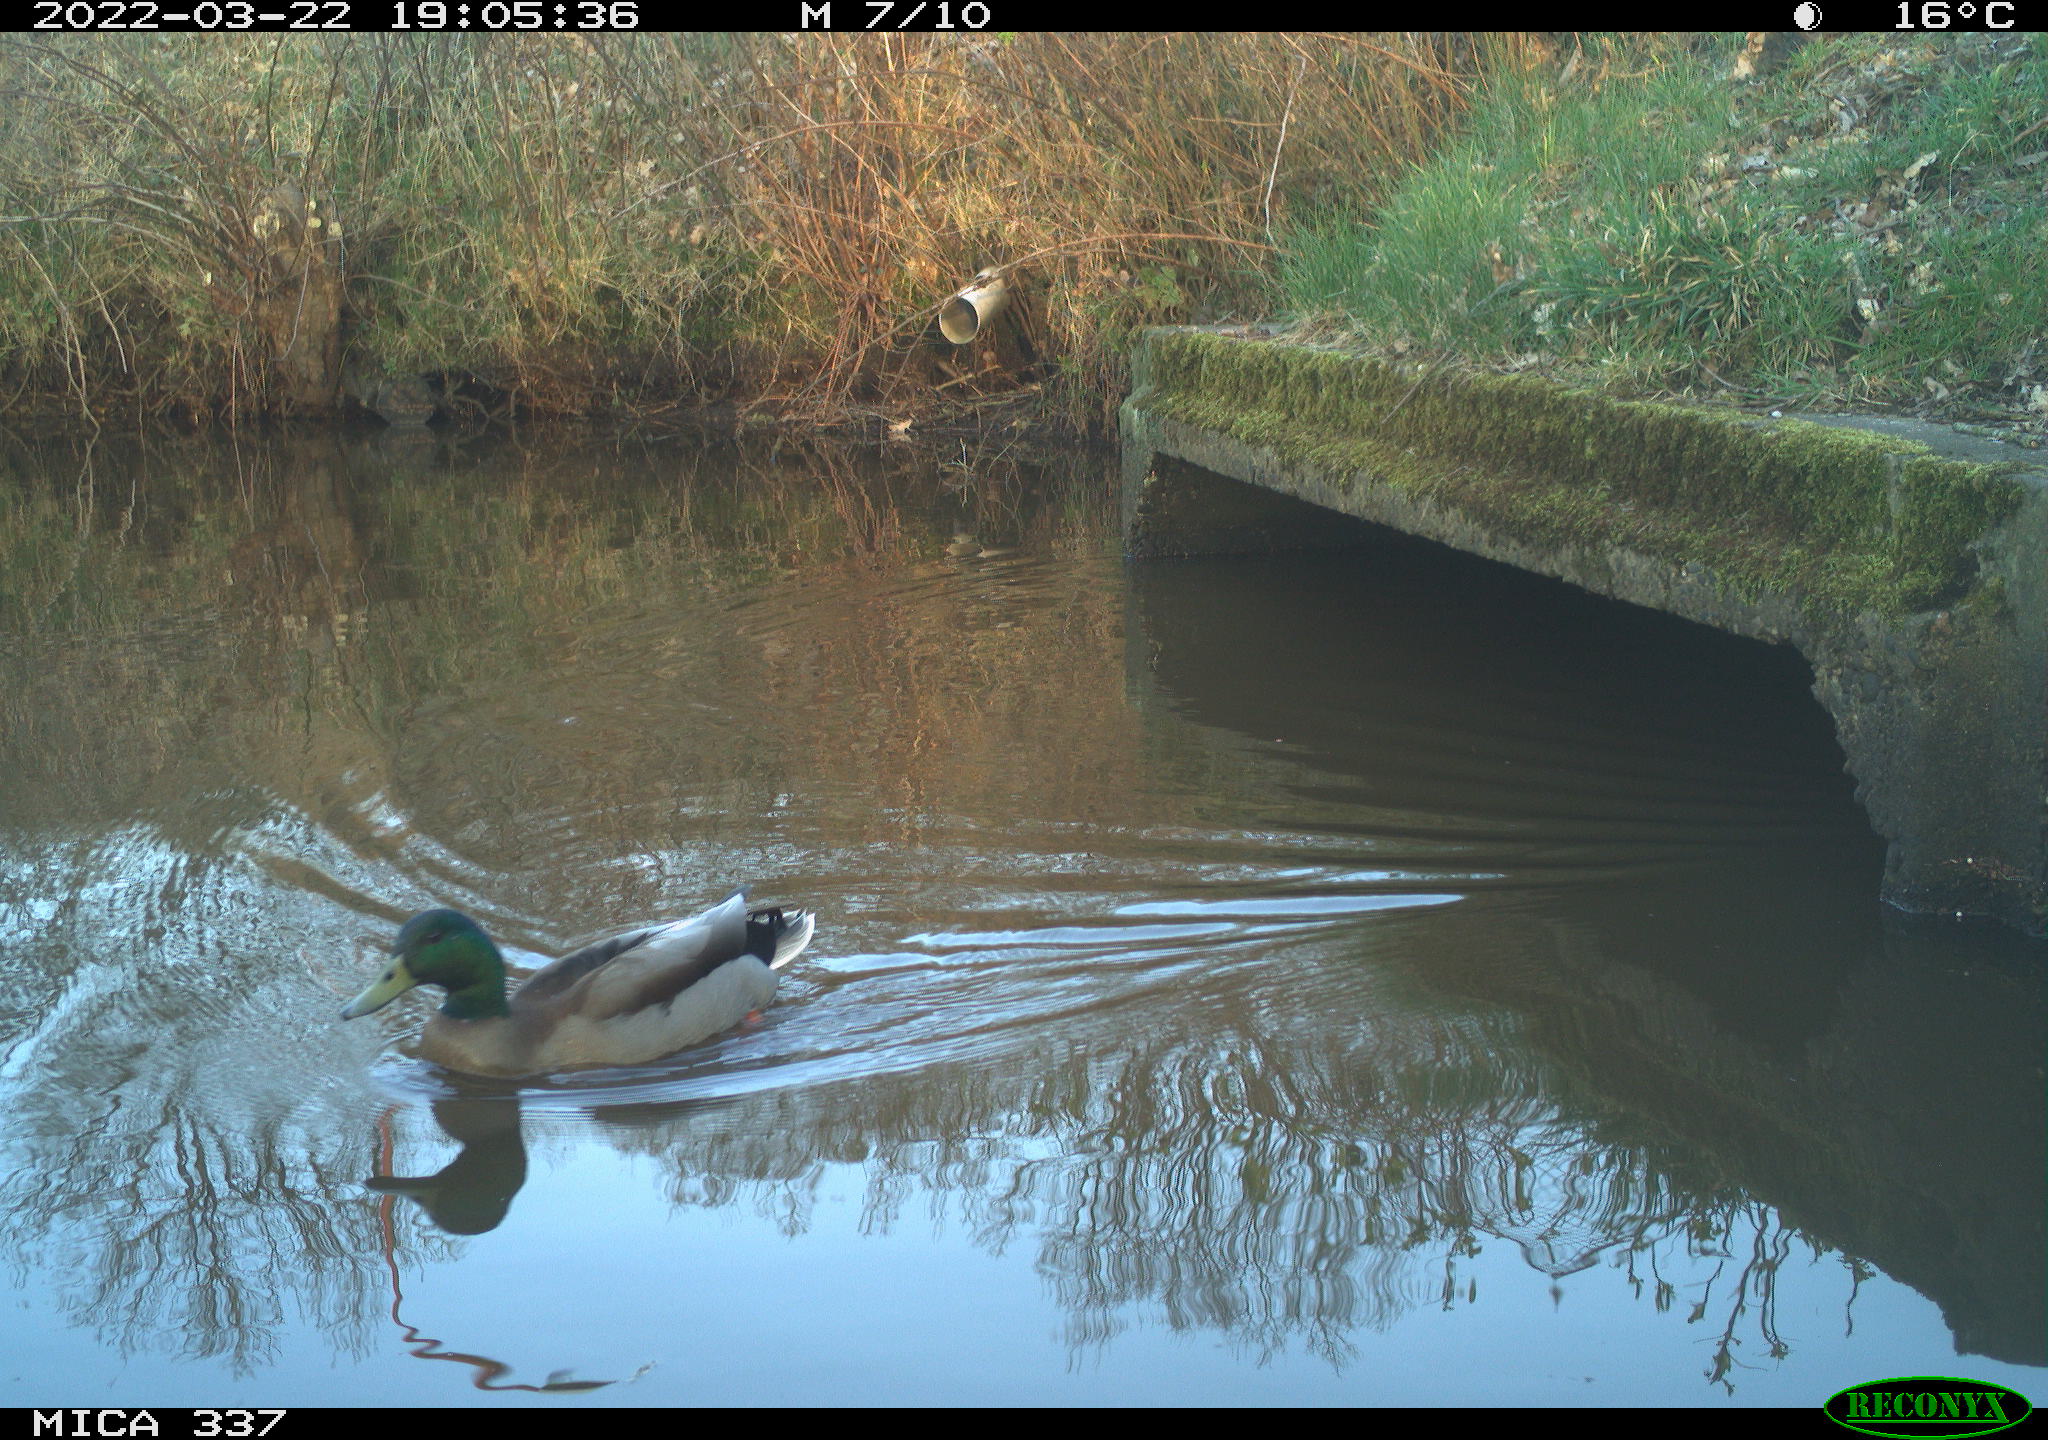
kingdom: Animalia
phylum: Chordata
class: Aves
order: Anseriformes
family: Anatidae
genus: Anas
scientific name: Anas platyrhynchos
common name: Mallard
